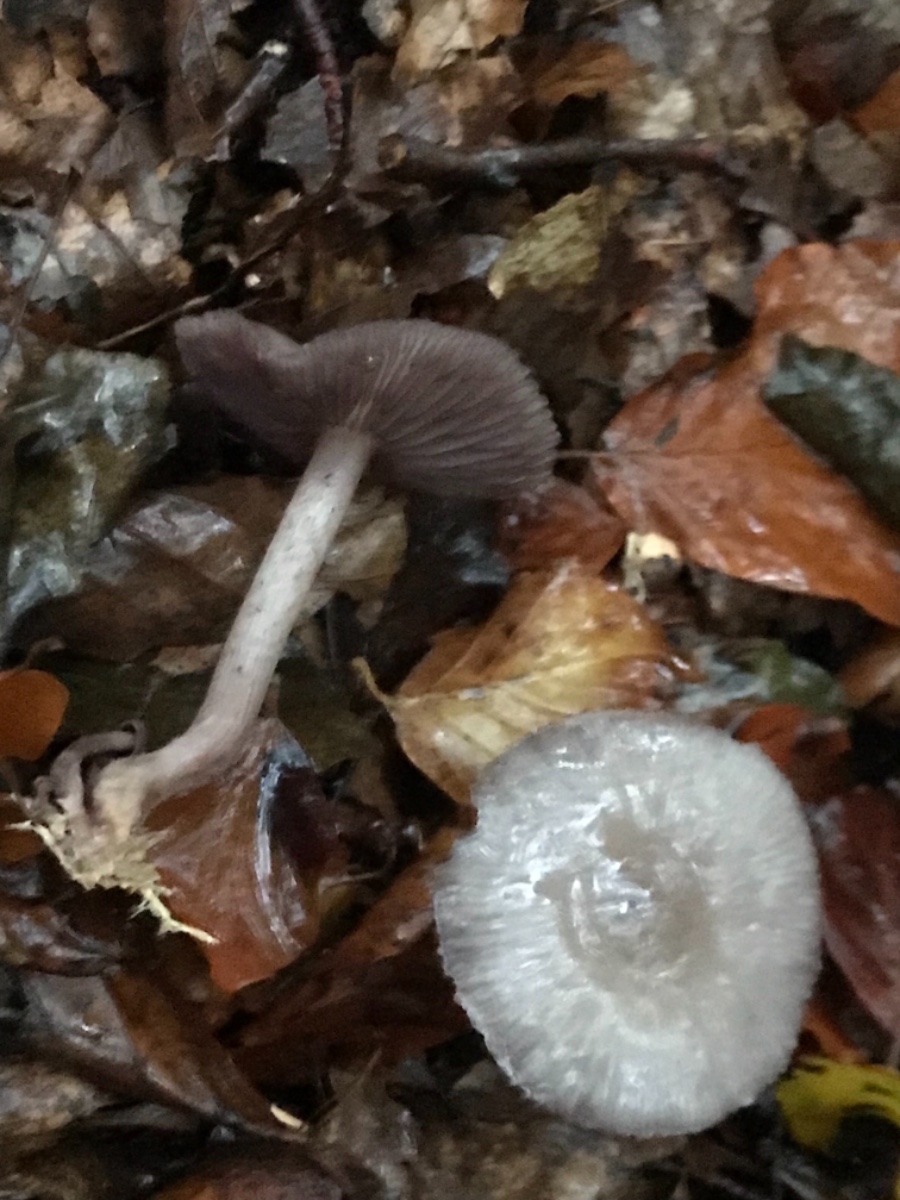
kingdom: Fungi
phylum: Basidiomycota
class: Agaricomycetes
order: Agaricales
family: Mycenaceae
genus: Mycena
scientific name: Mycena pelianthina
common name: mørkbladet huesvamp
